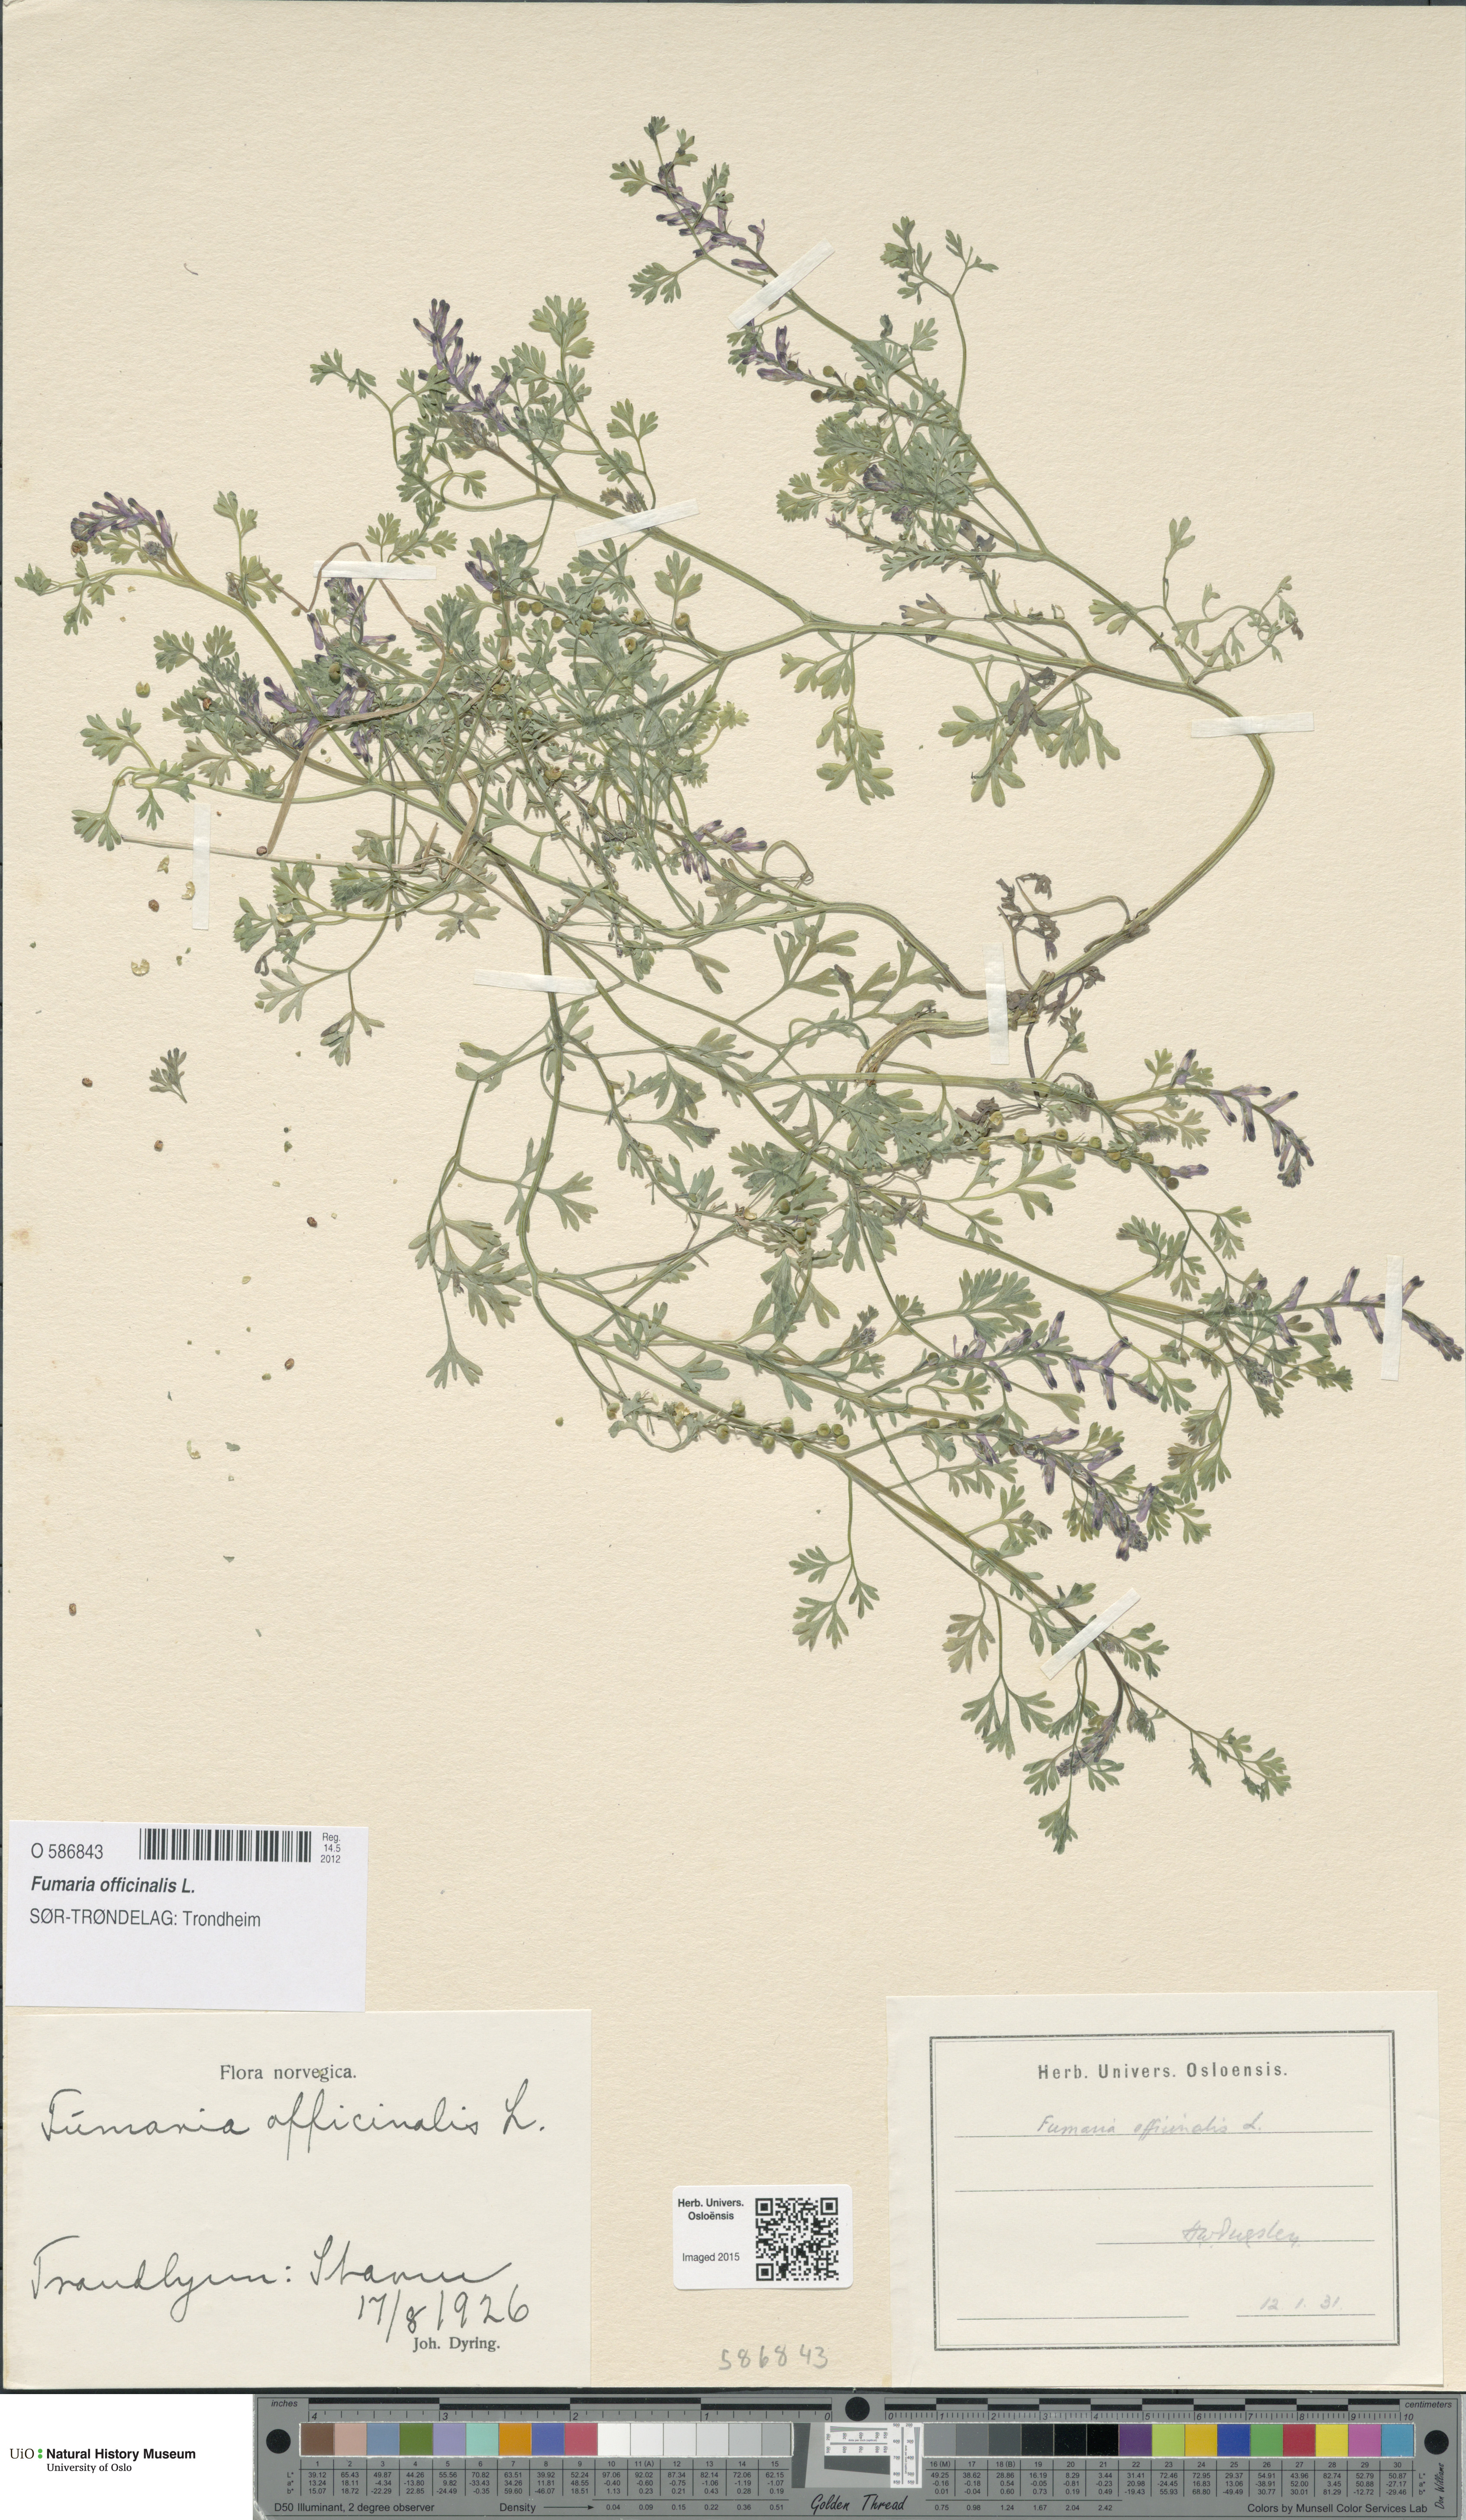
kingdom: Plantae
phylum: Tracheophyta
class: Magnoliopsida
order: Ranunculales
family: Papaveraceae
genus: Fumaria
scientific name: Fumaria officinalis
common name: Common fumitory
